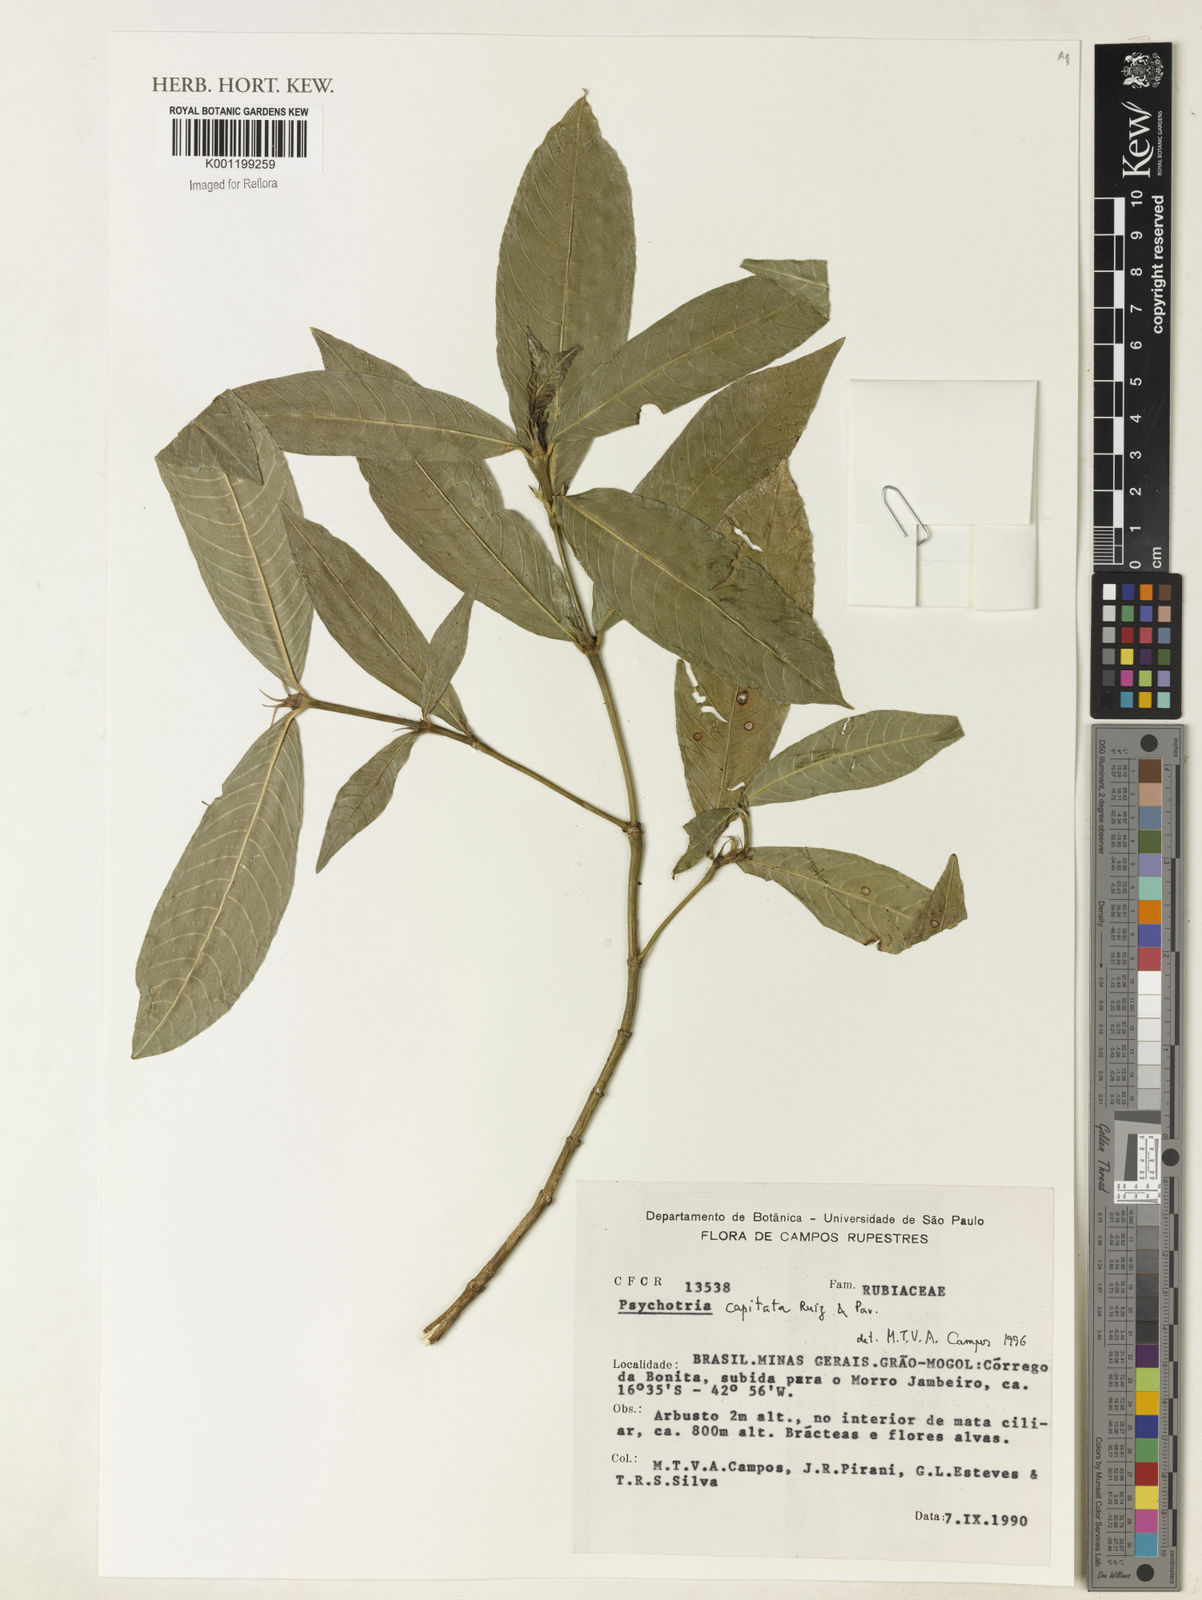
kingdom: Plantae
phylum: Tracheophyta
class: Magnoliopsida
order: Gentianales
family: Rubiaceae
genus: Palicourea
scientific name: Palicourea violacea
